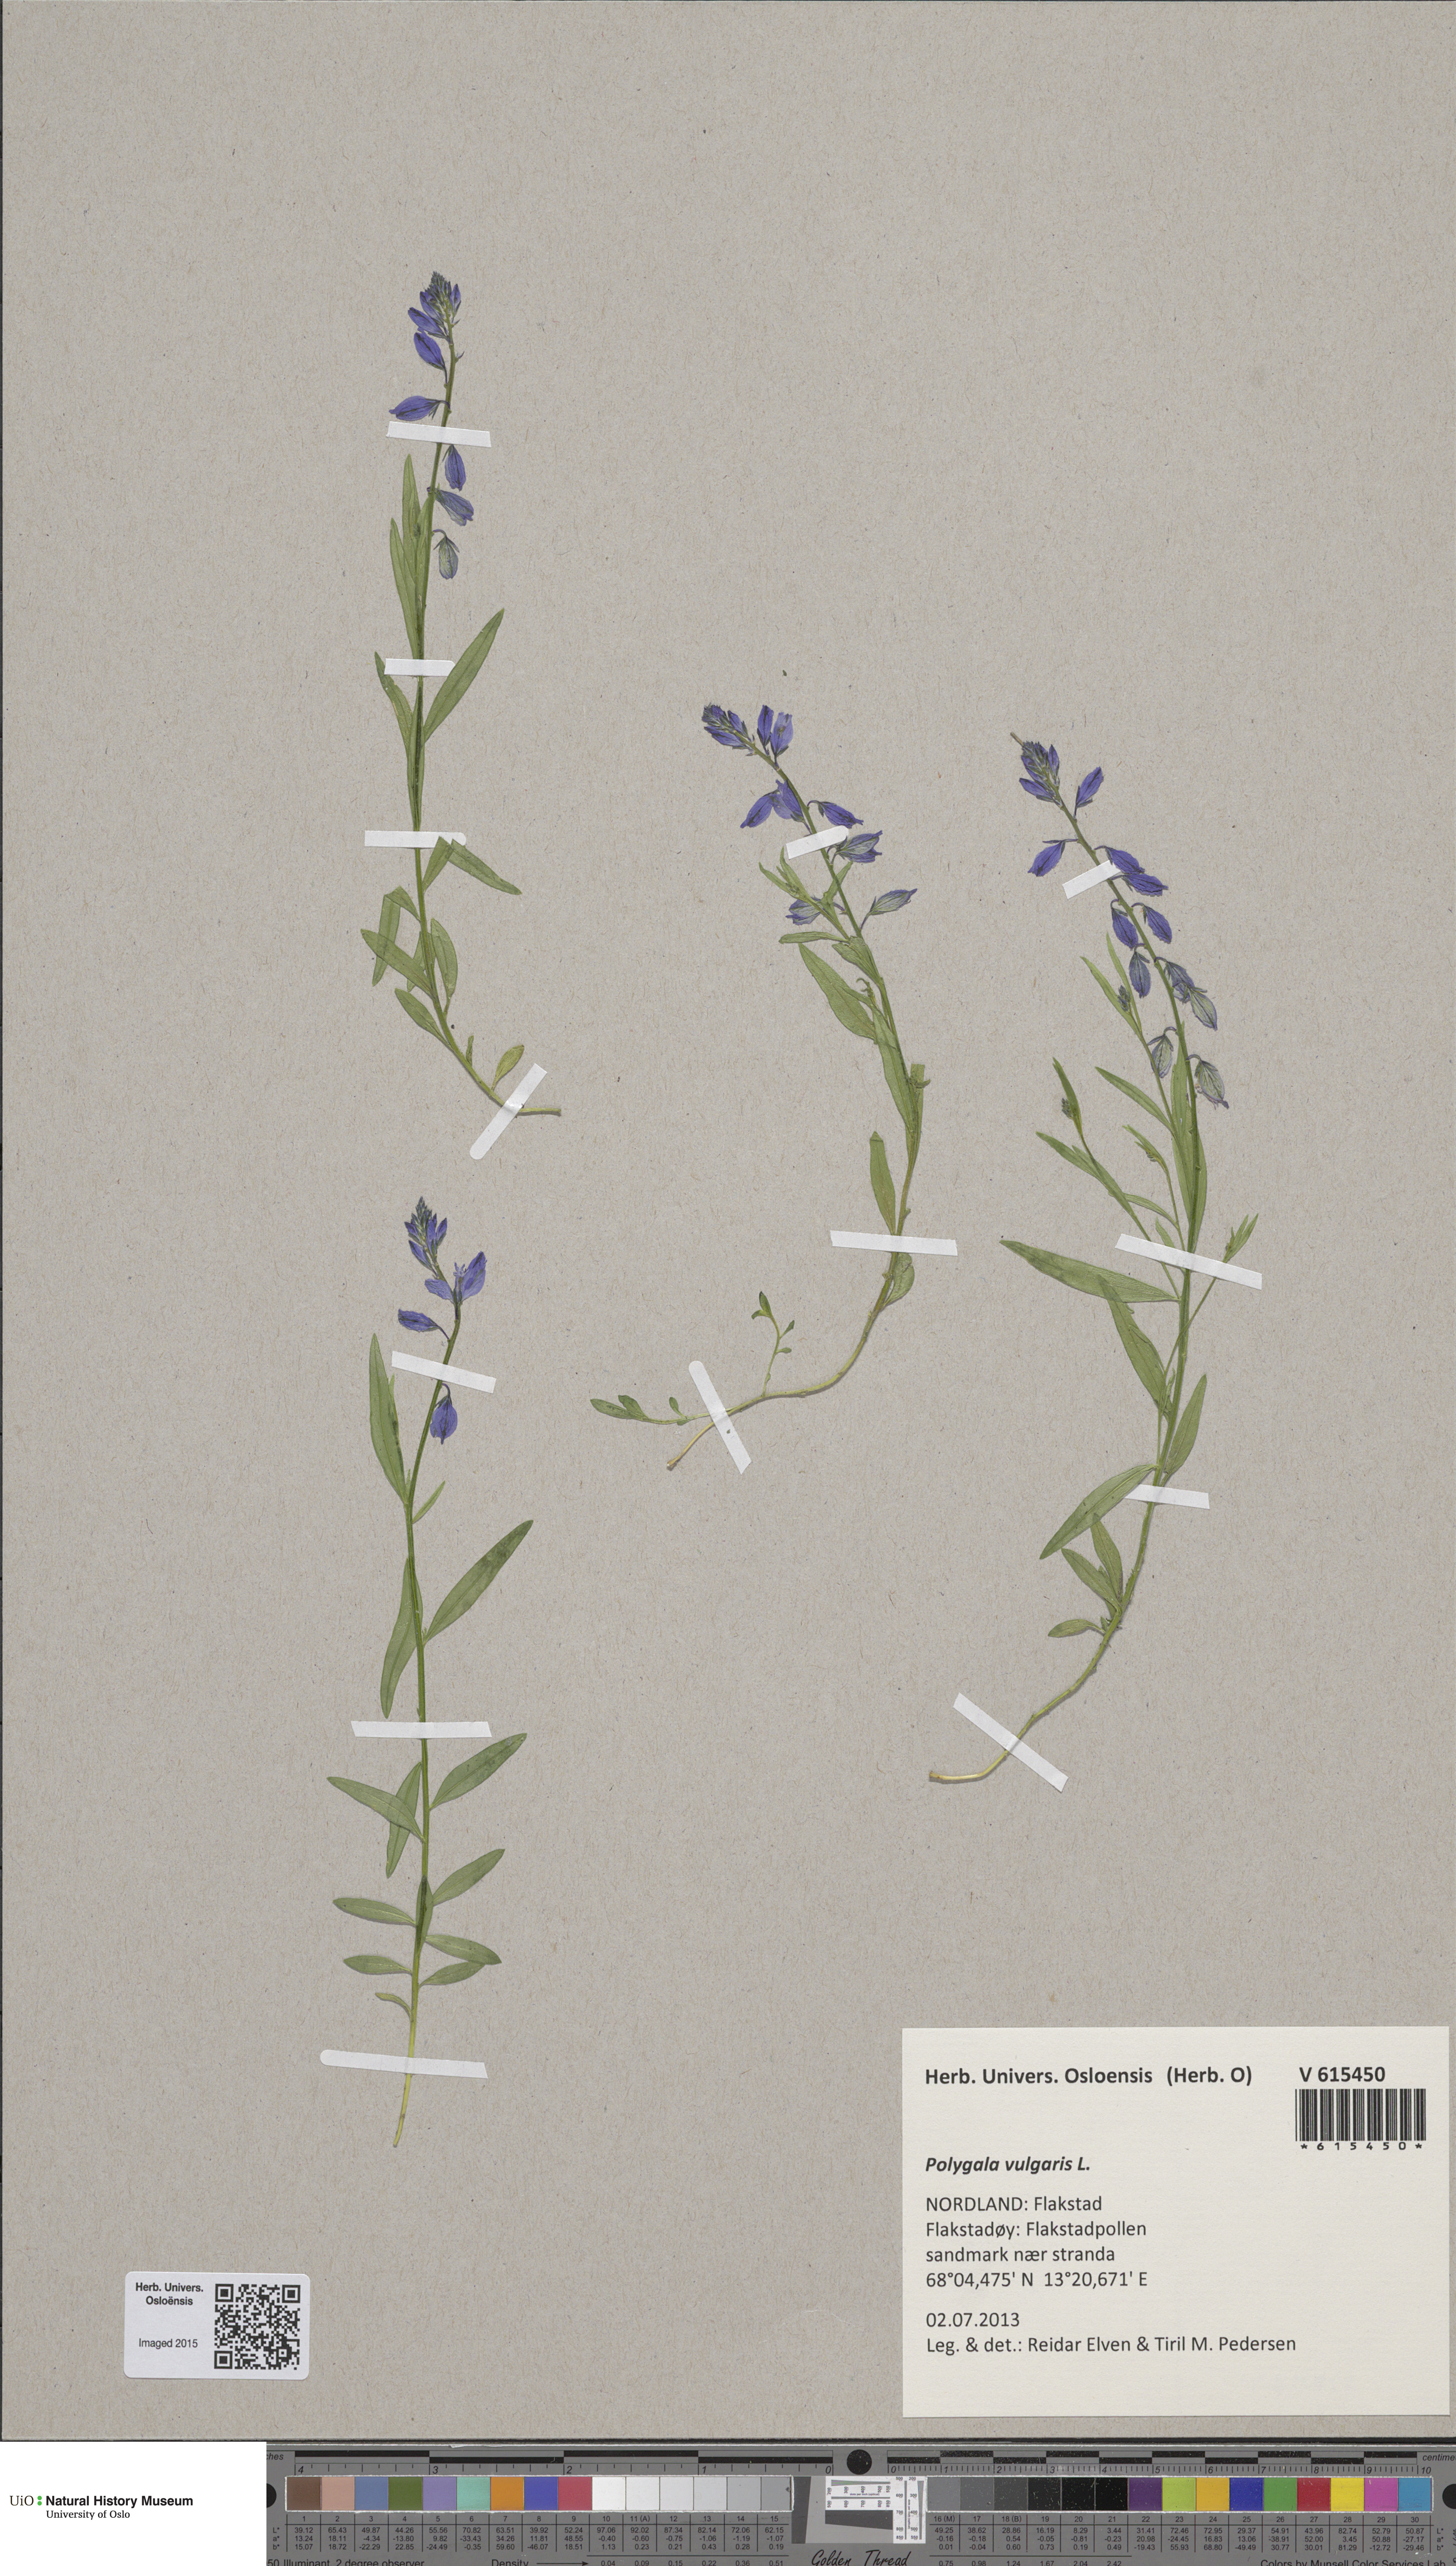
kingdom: Plantae
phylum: Tracheophyta
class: Magnoliopsida
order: Fabales
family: Polygalaceae
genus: Polygala
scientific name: Polygala vulgaris
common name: Common milkwort
